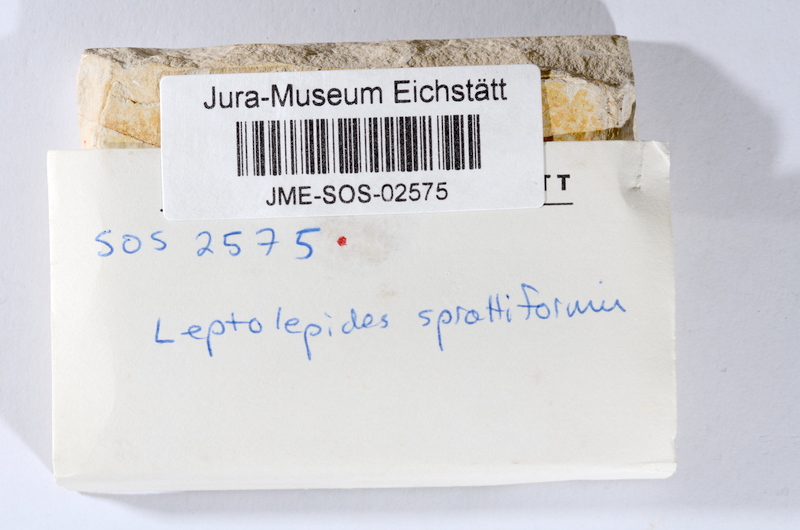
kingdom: Animalia
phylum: Chordata
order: Salmoniformes
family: Orthogonikleithridae
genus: Leptolepides
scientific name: Leptolepides sprattiformis
